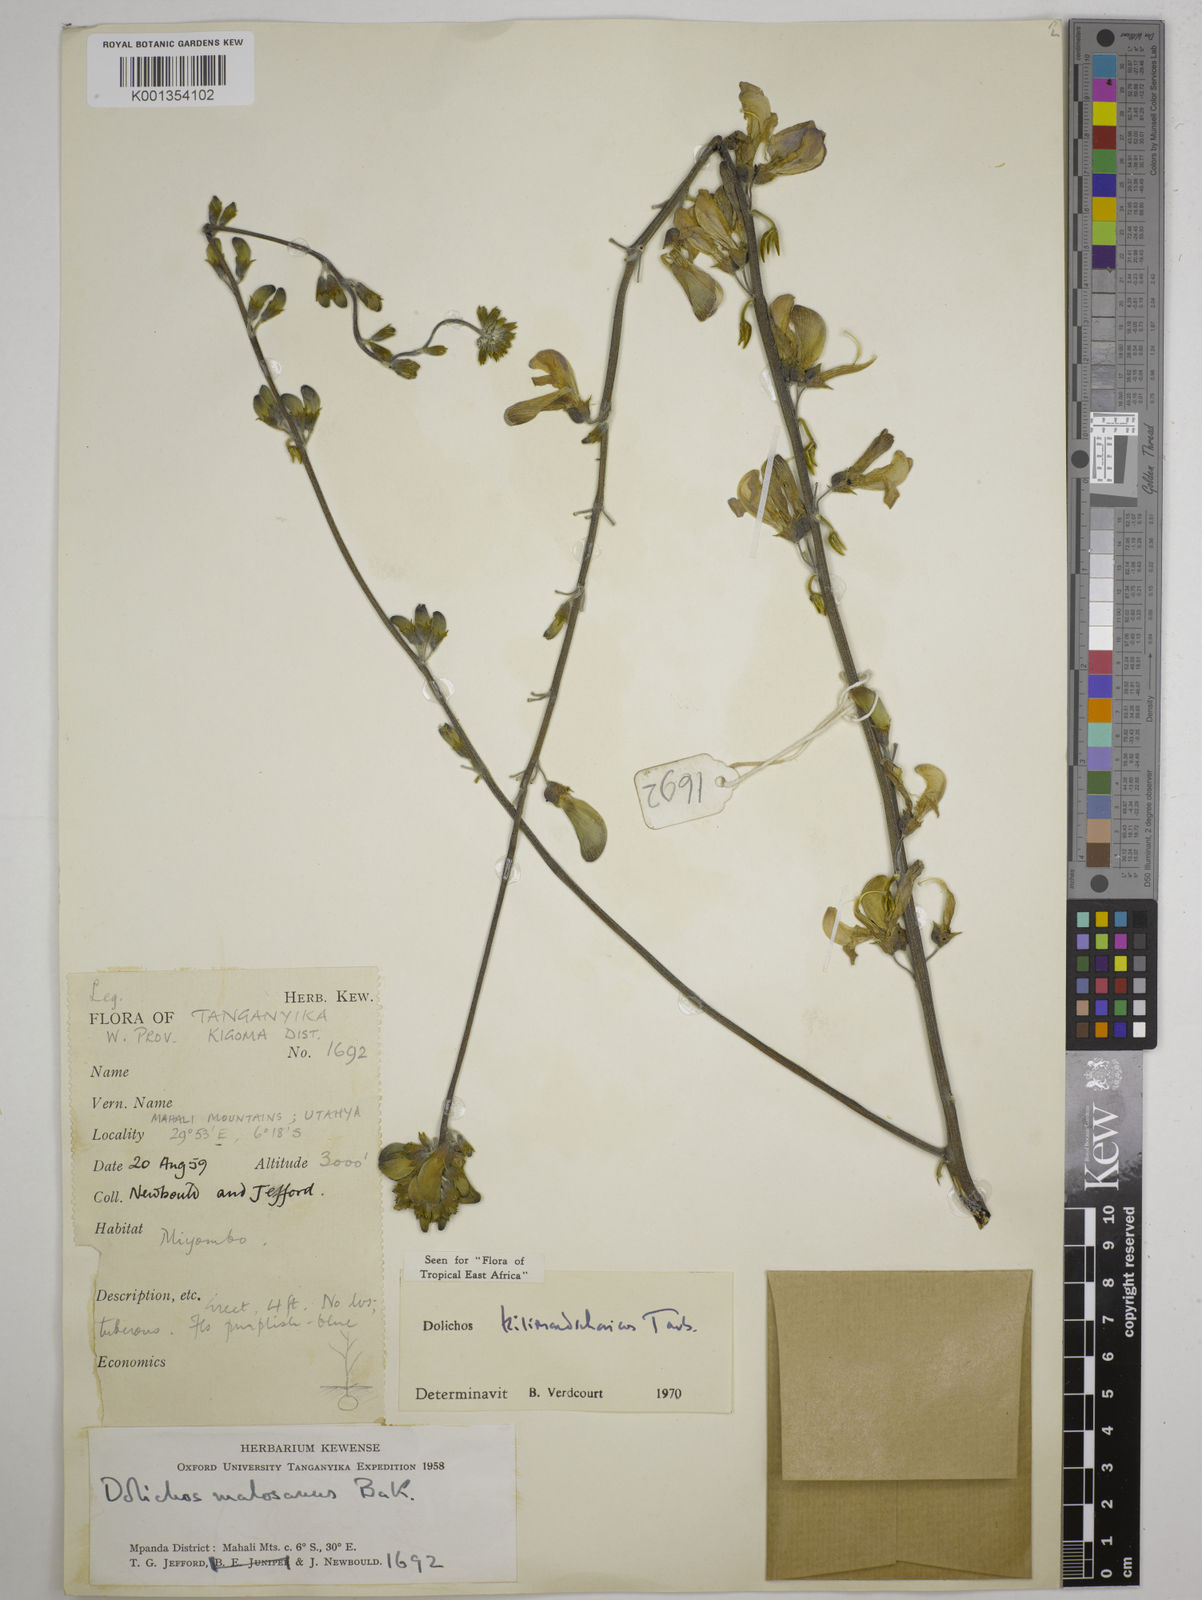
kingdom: Plantae
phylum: Tracheophyta
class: Magnoliopsida
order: Fabales
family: Fabaceae
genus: Dolichos
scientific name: Dolichos kilimandscharicus
